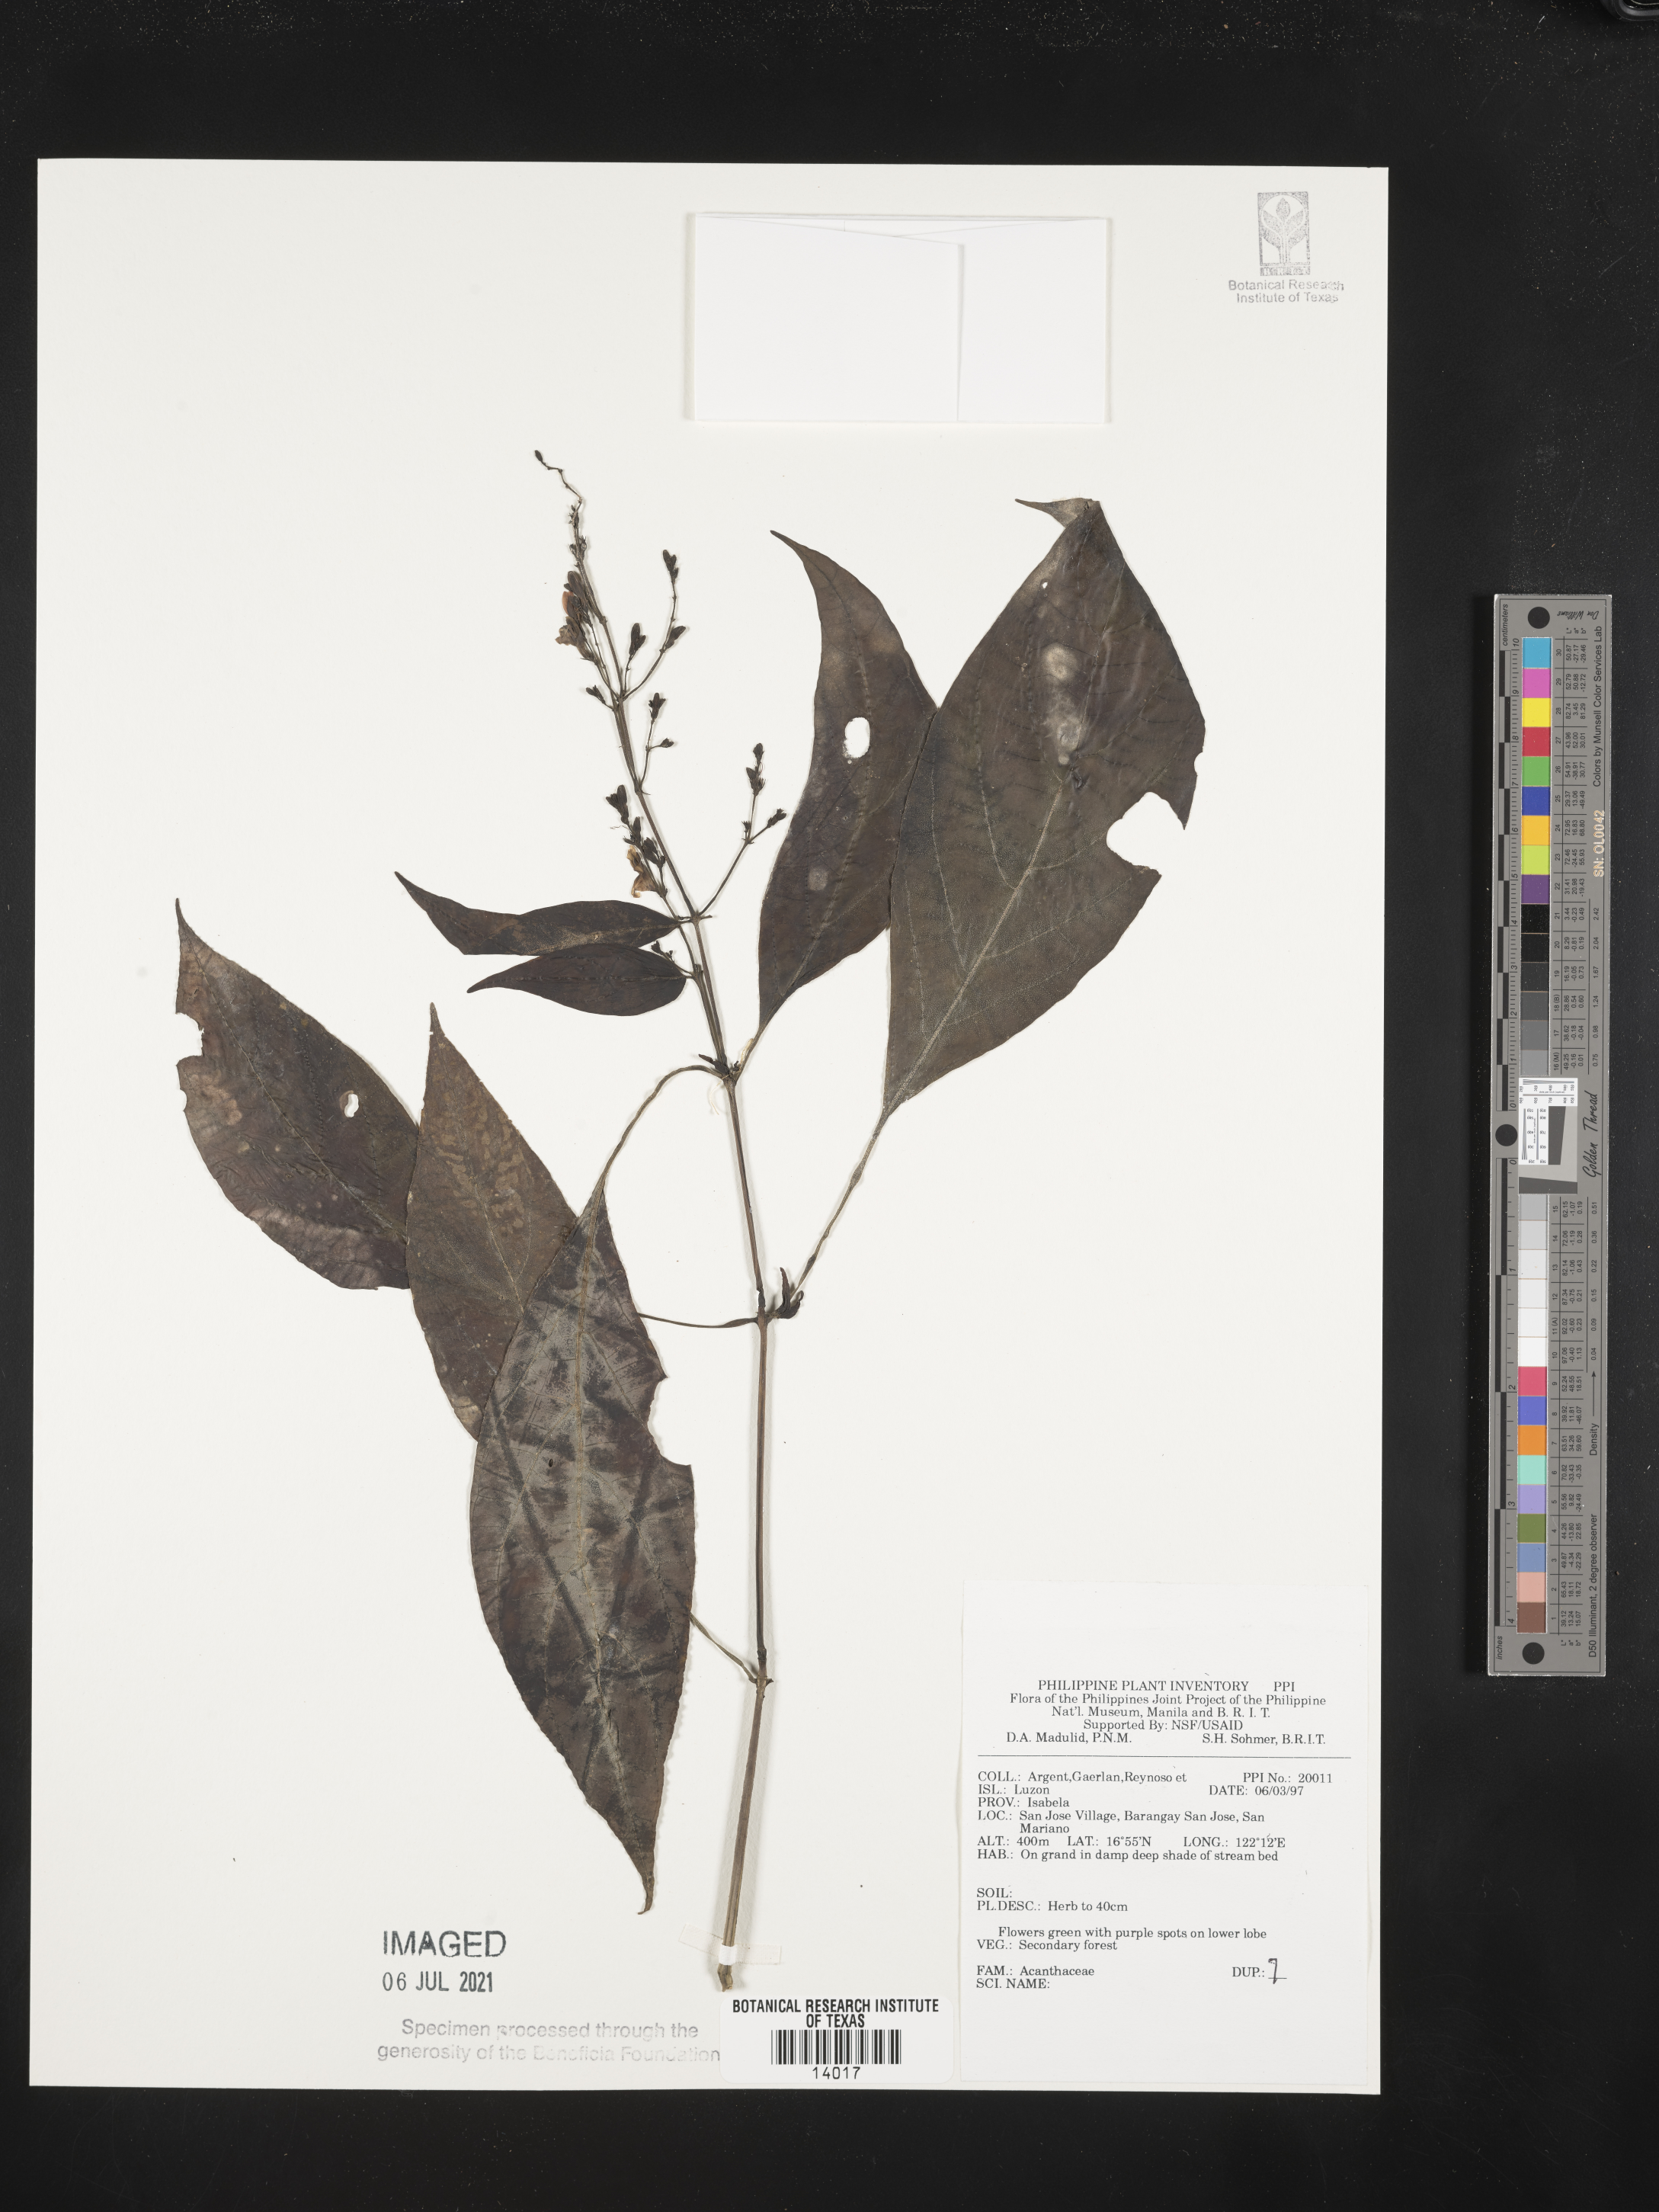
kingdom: Plantae
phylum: Tracheophyta
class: Magnoliopsida
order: Lamiales
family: Acanthaceae
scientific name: Acanthaceae
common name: Acanthaceae
